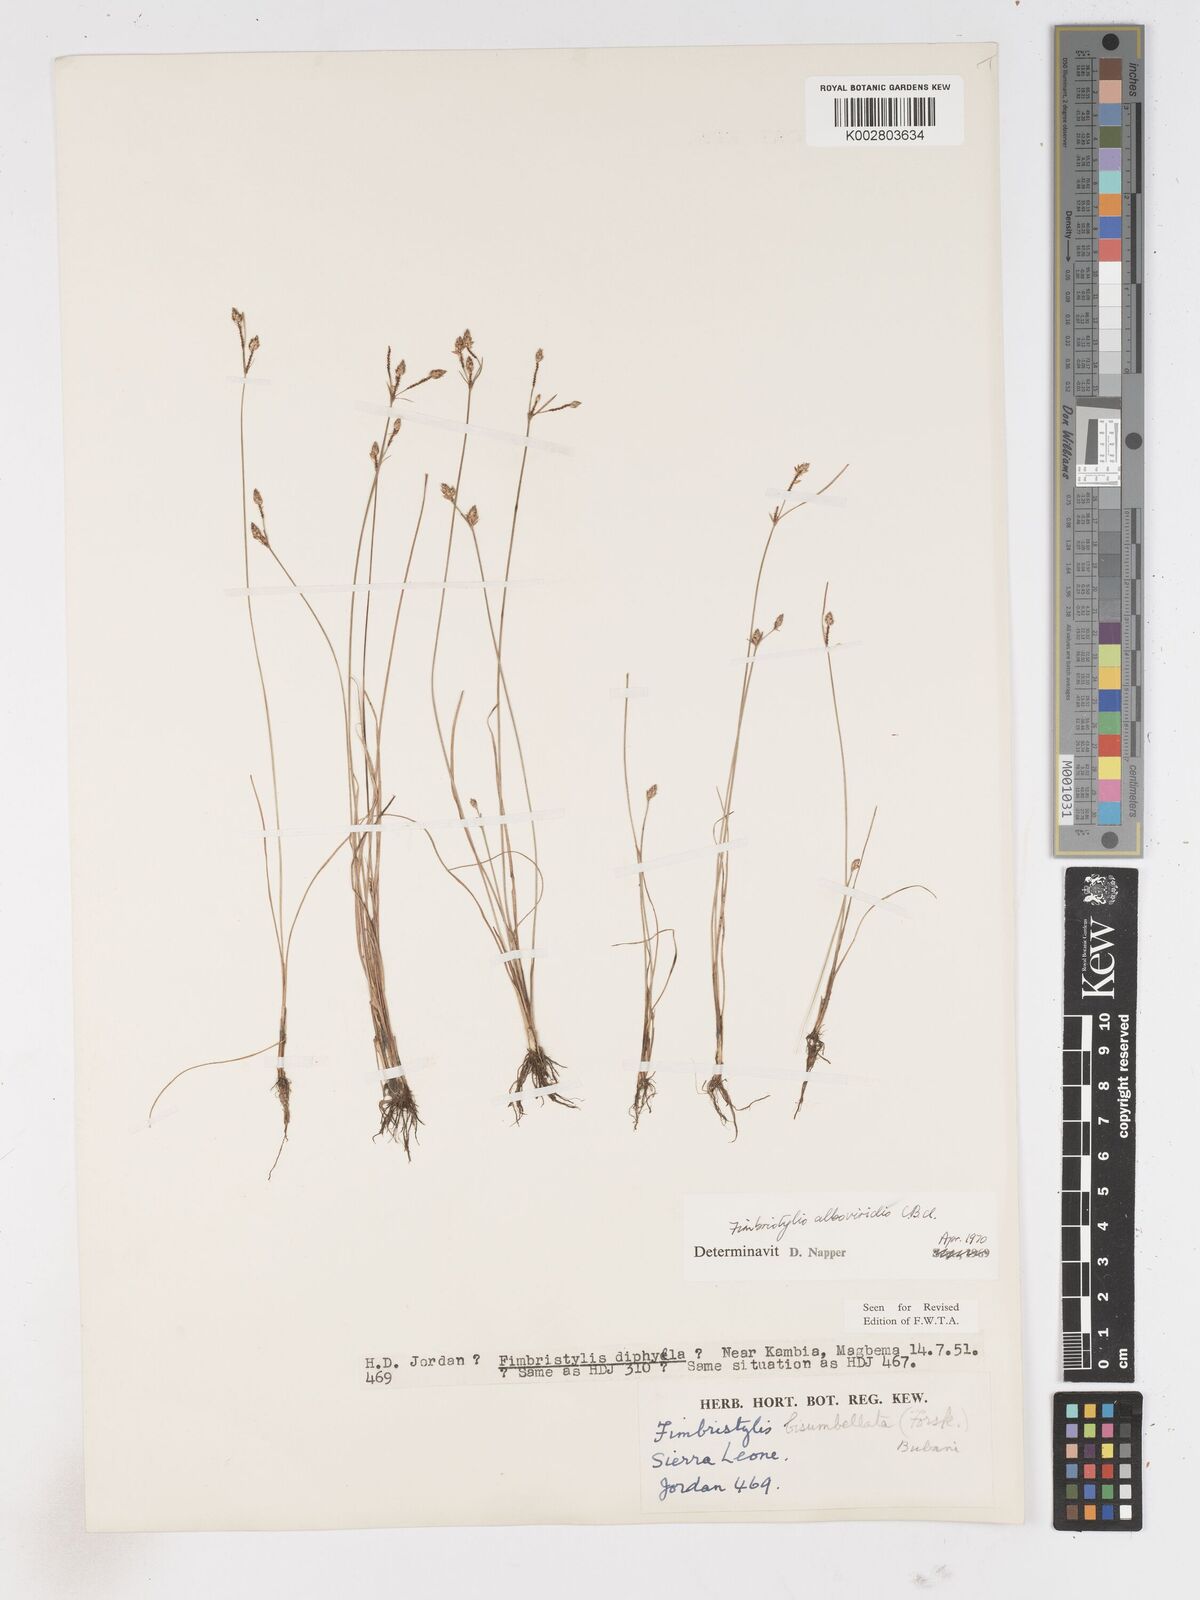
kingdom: Plantae
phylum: Tracheophyta
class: Liliopsida
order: Poales
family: Cyperaceae
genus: Fimbristylis
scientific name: Fimbristylis alboviridis
